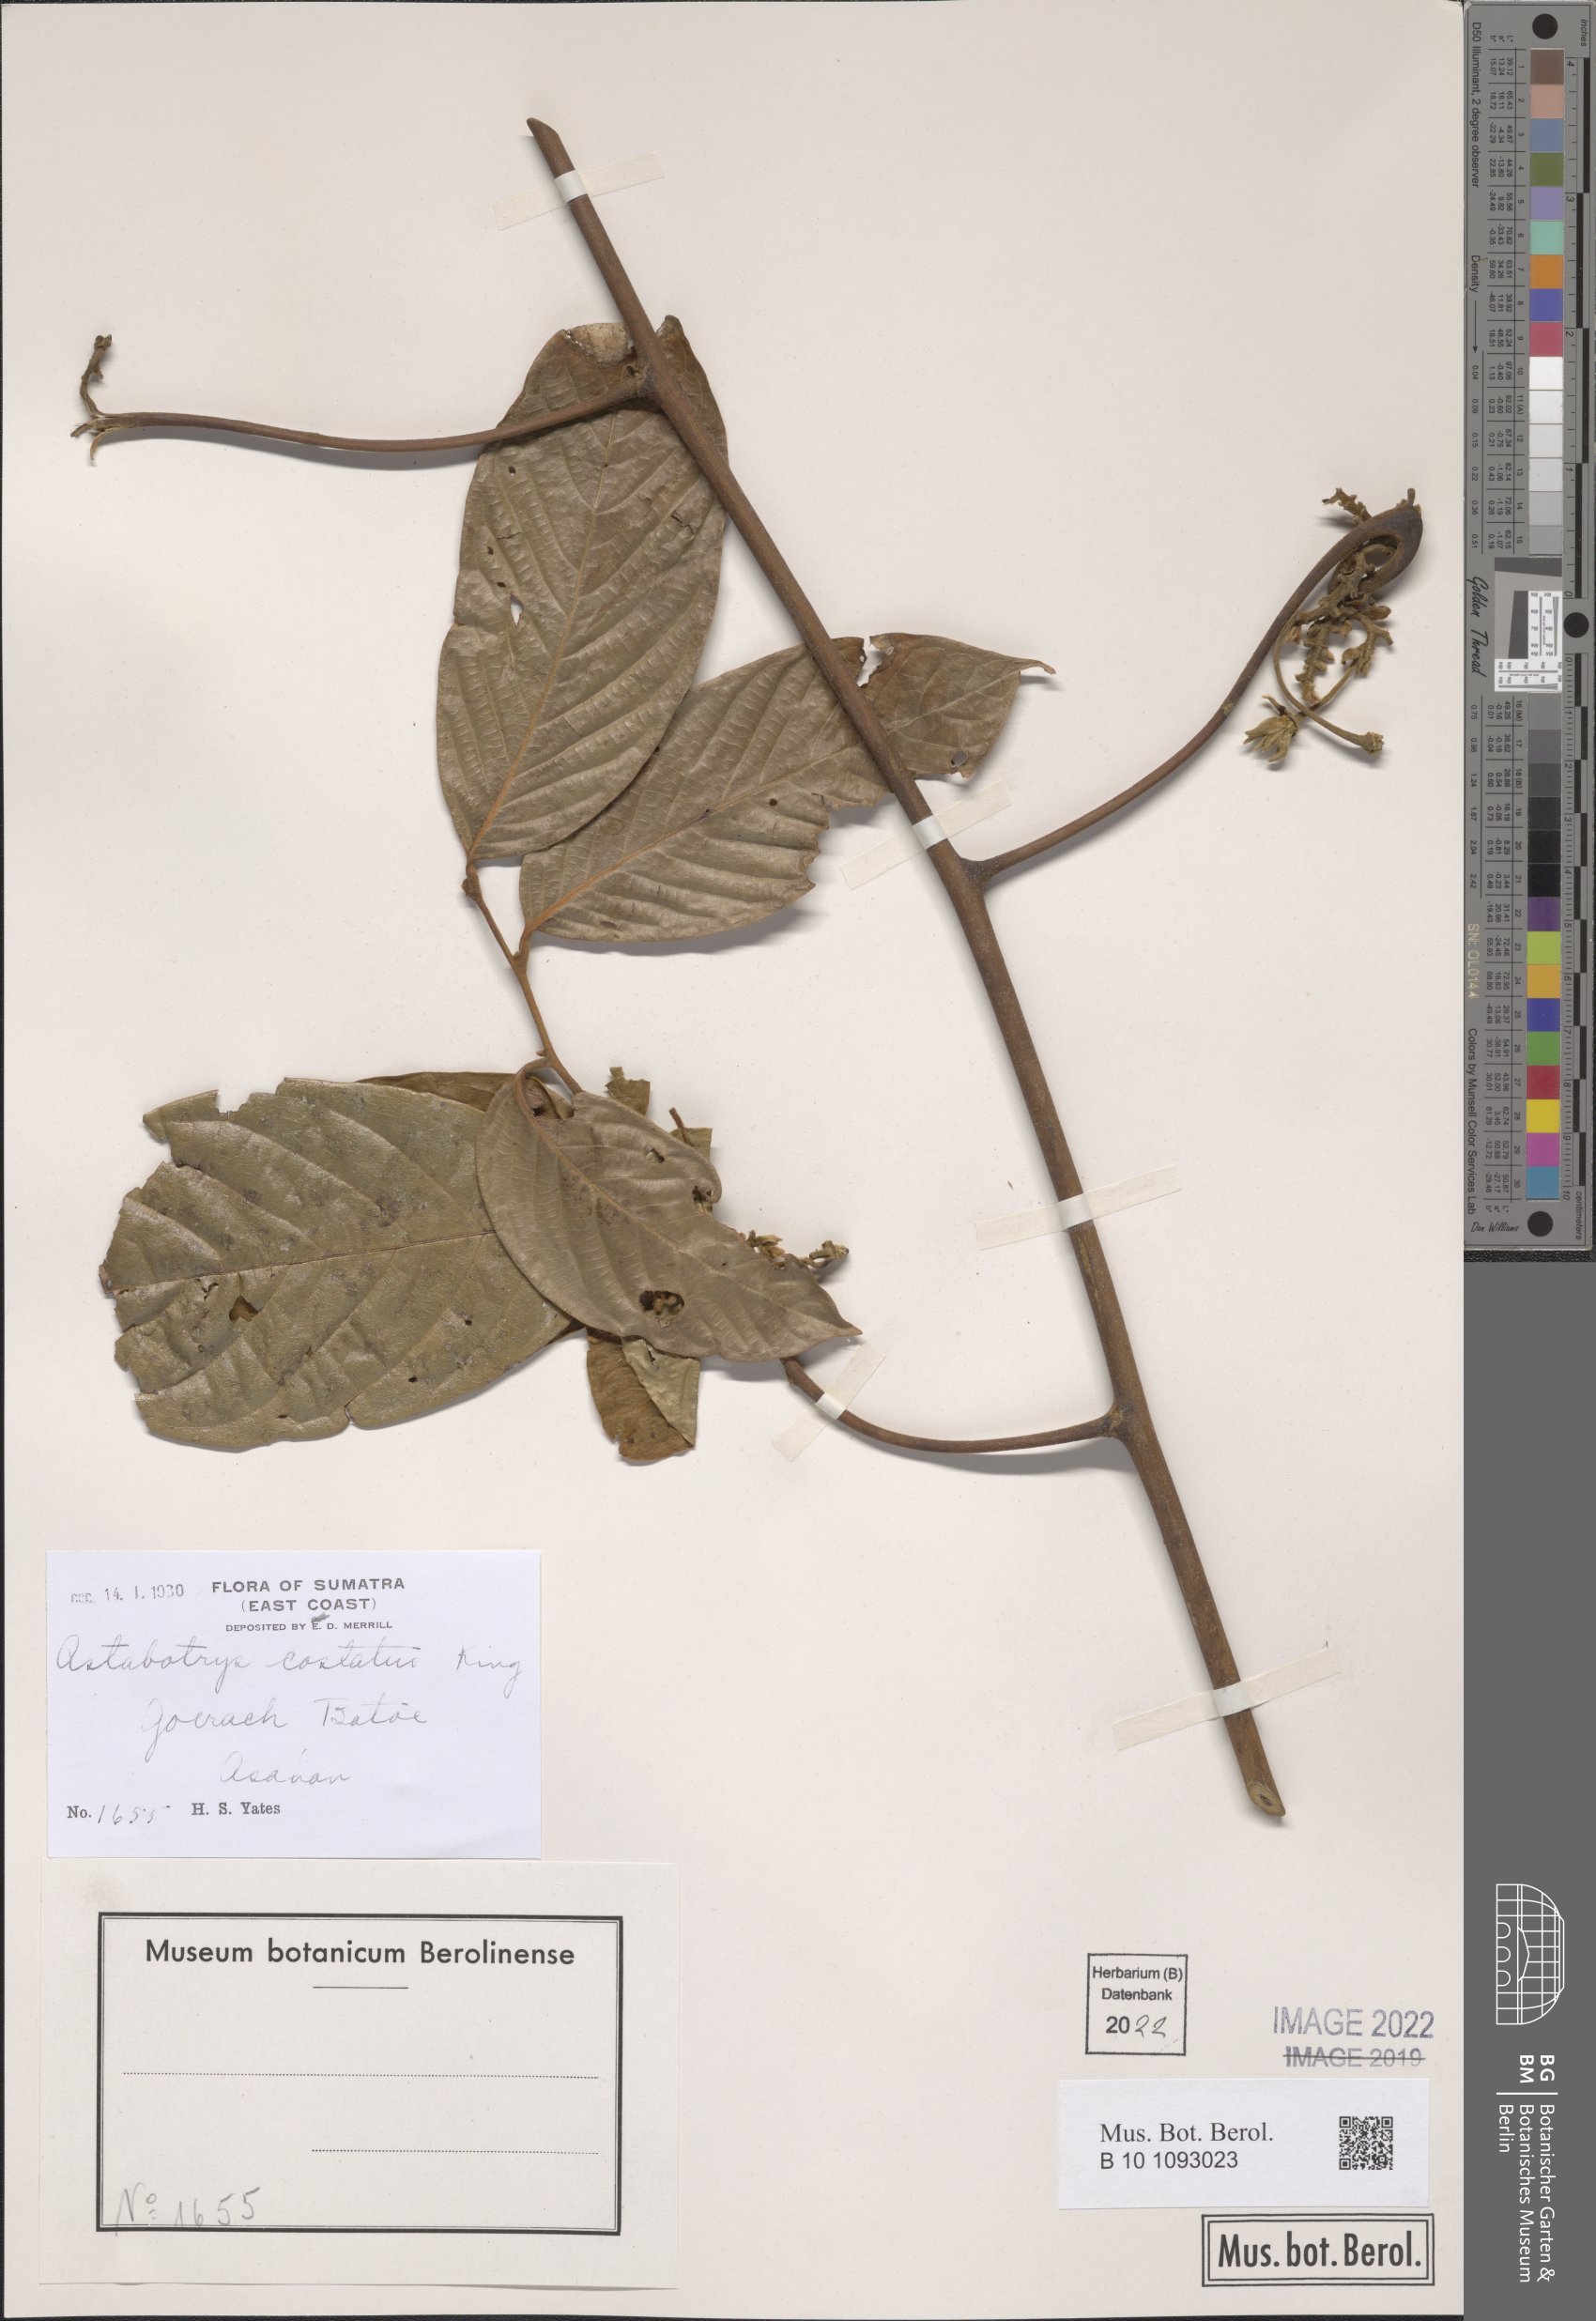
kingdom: Plantae
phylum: Tracheophyta
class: Magnoliopsida
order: Magnoliales
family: Annonaceae
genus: Artabotrys
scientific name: Artabotrys costatus
